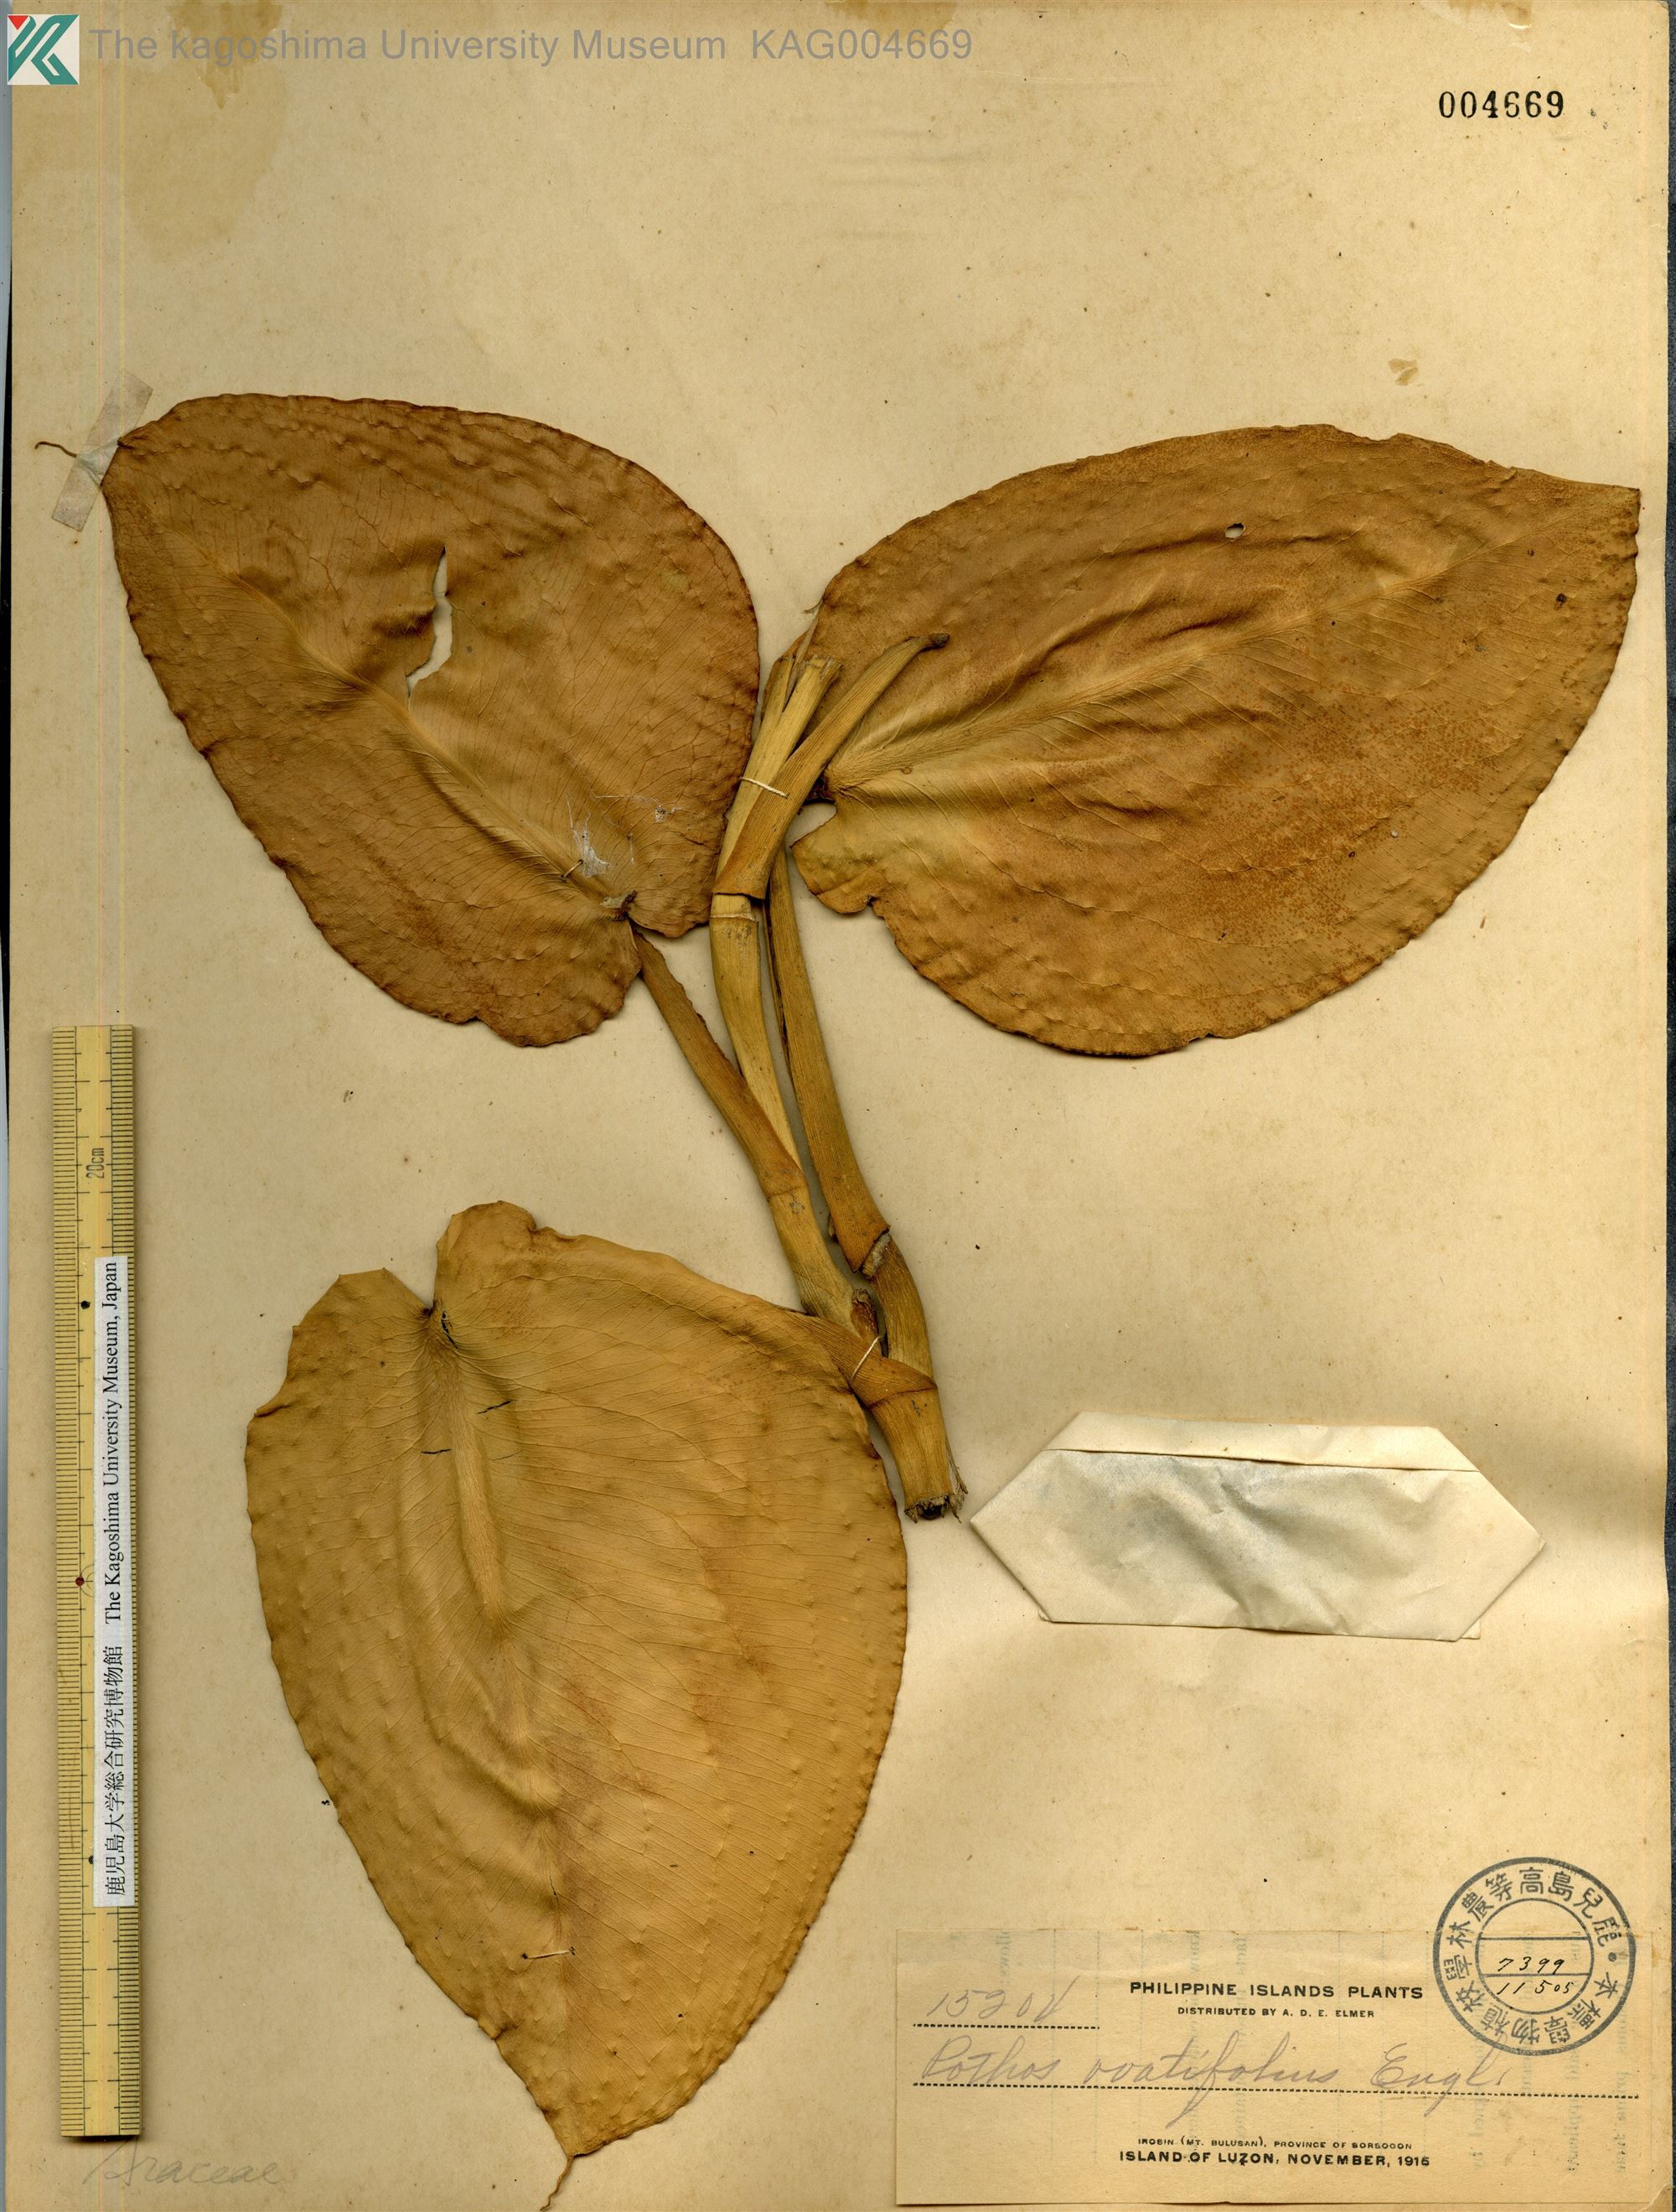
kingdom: Plantae
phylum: Tracheophyta
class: Liliopsida
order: Alismatales
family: Araceae
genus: Pothos
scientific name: Pothos ovatifolius
